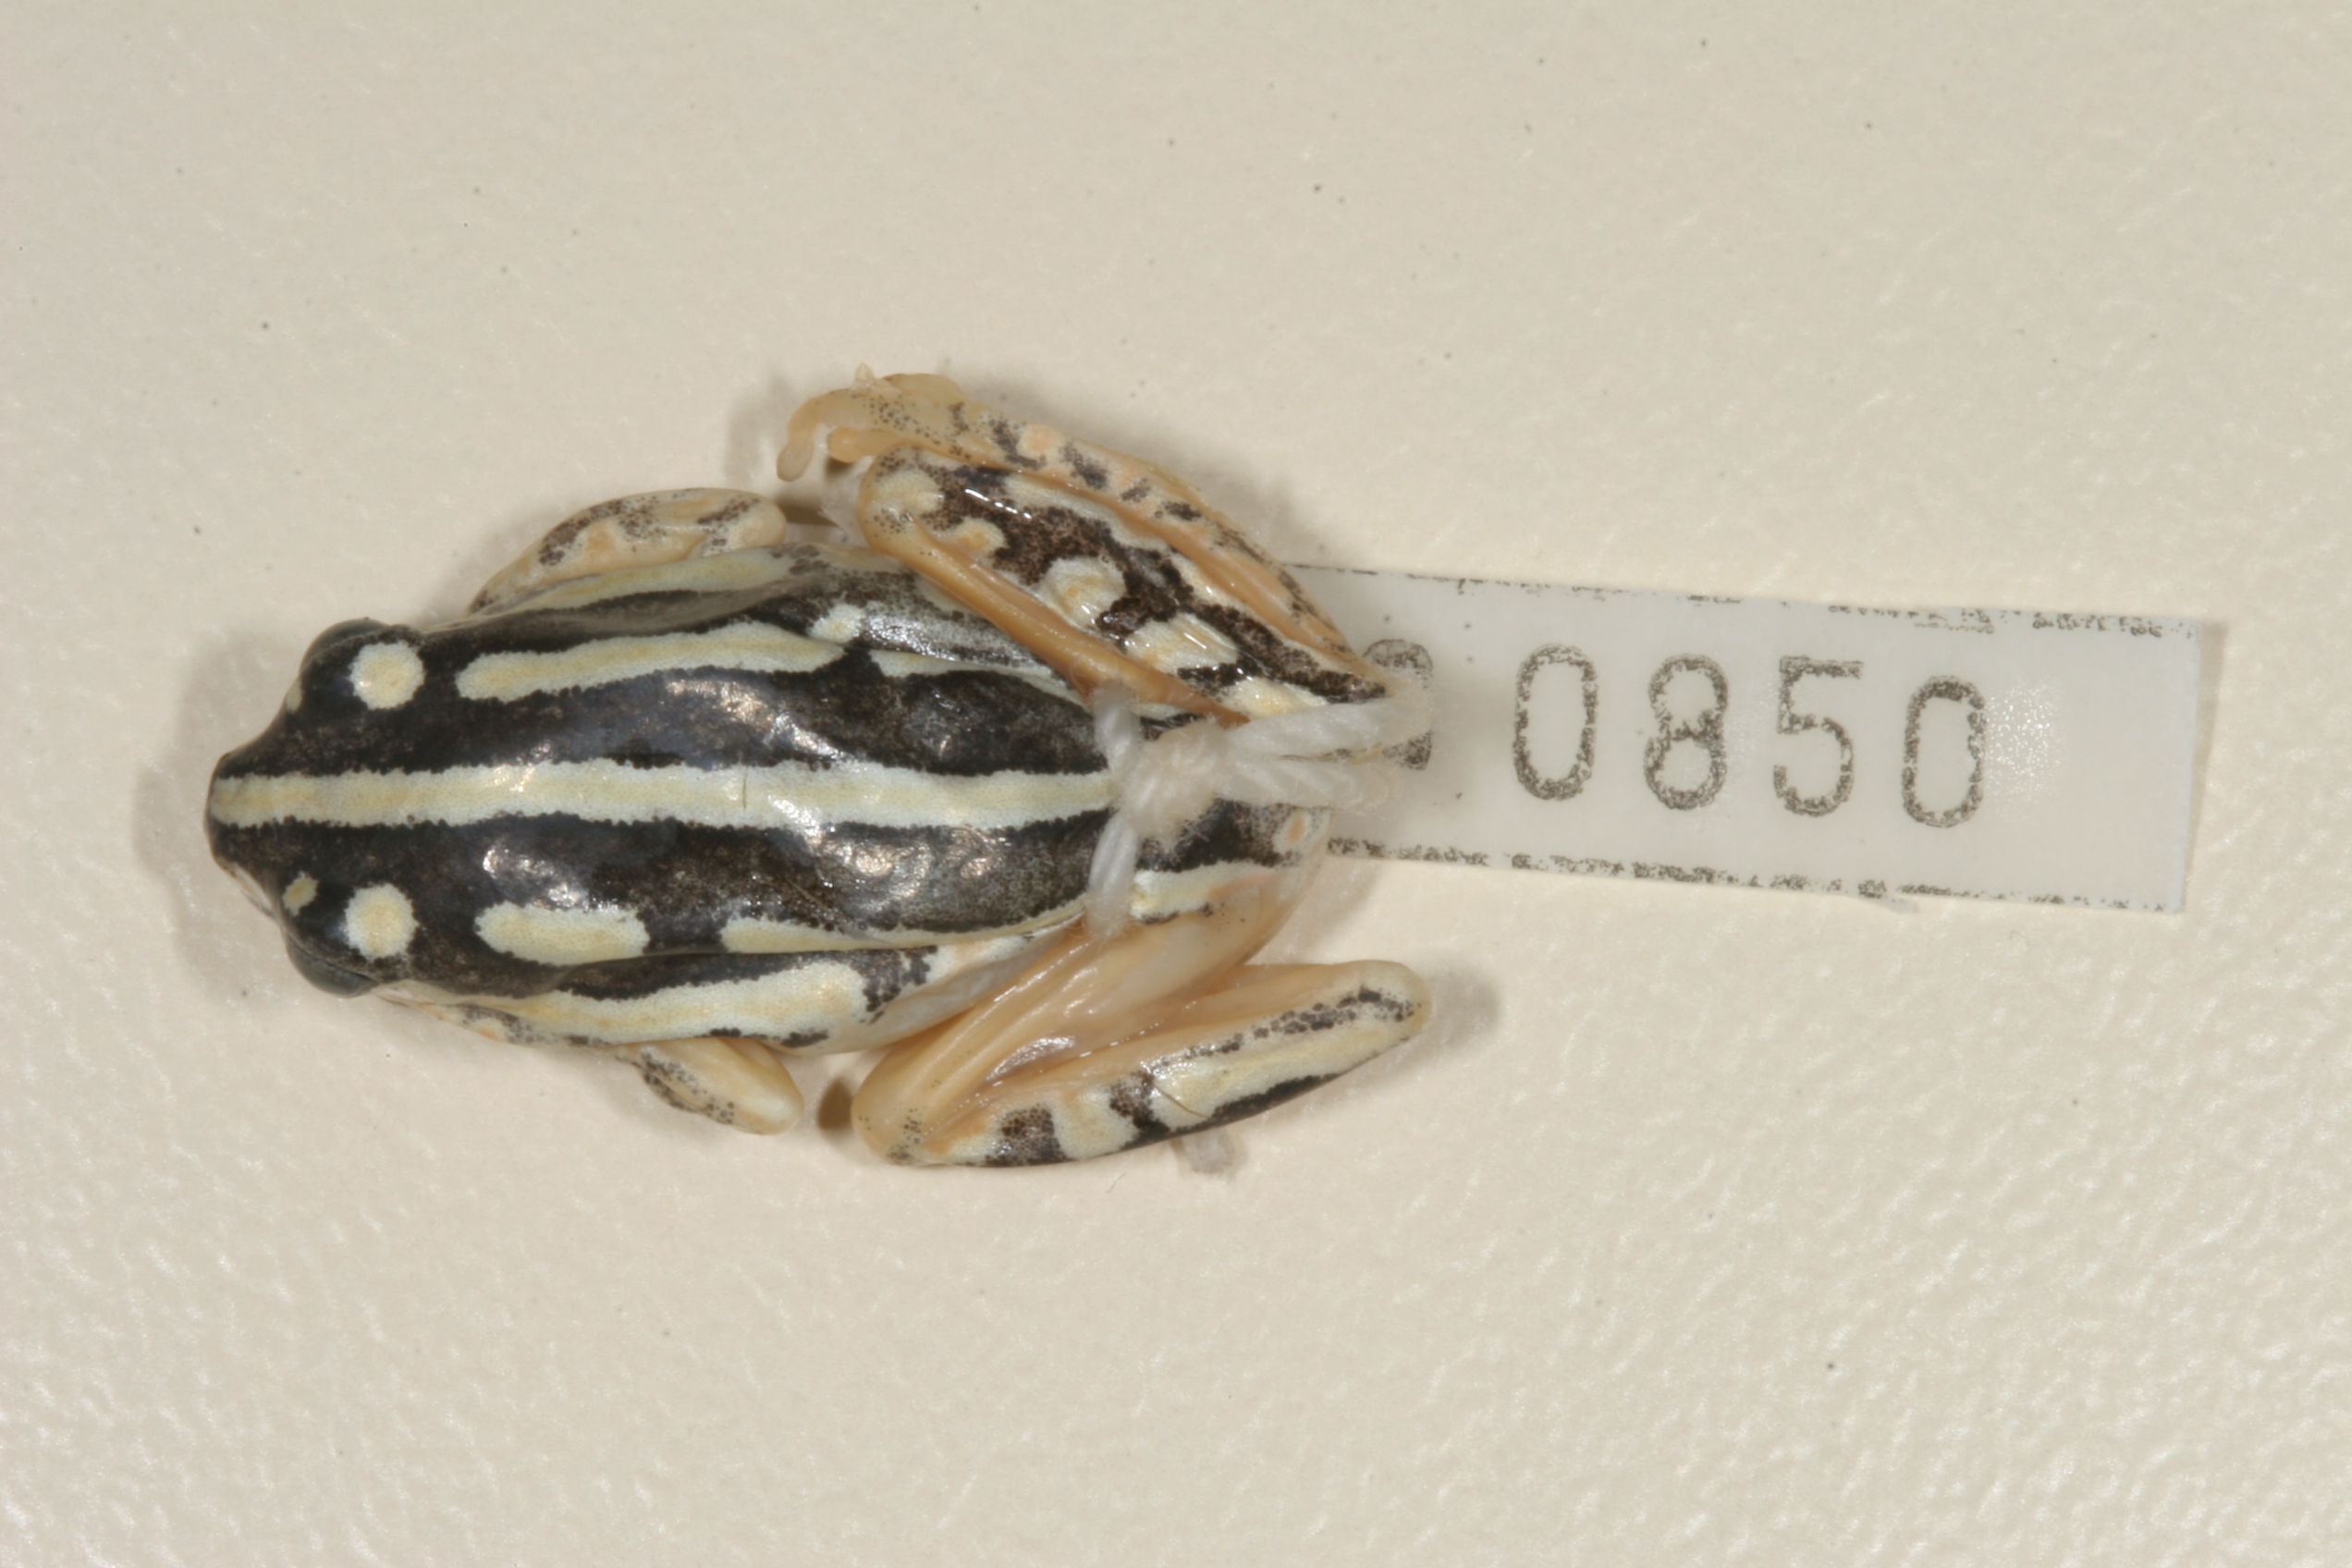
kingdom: Animalia
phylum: Chordata
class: Amphibia
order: Anura
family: Hyperoliidae
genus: Hyperolius
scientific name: Hyperolius marmoratus
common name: Painted reed frog
